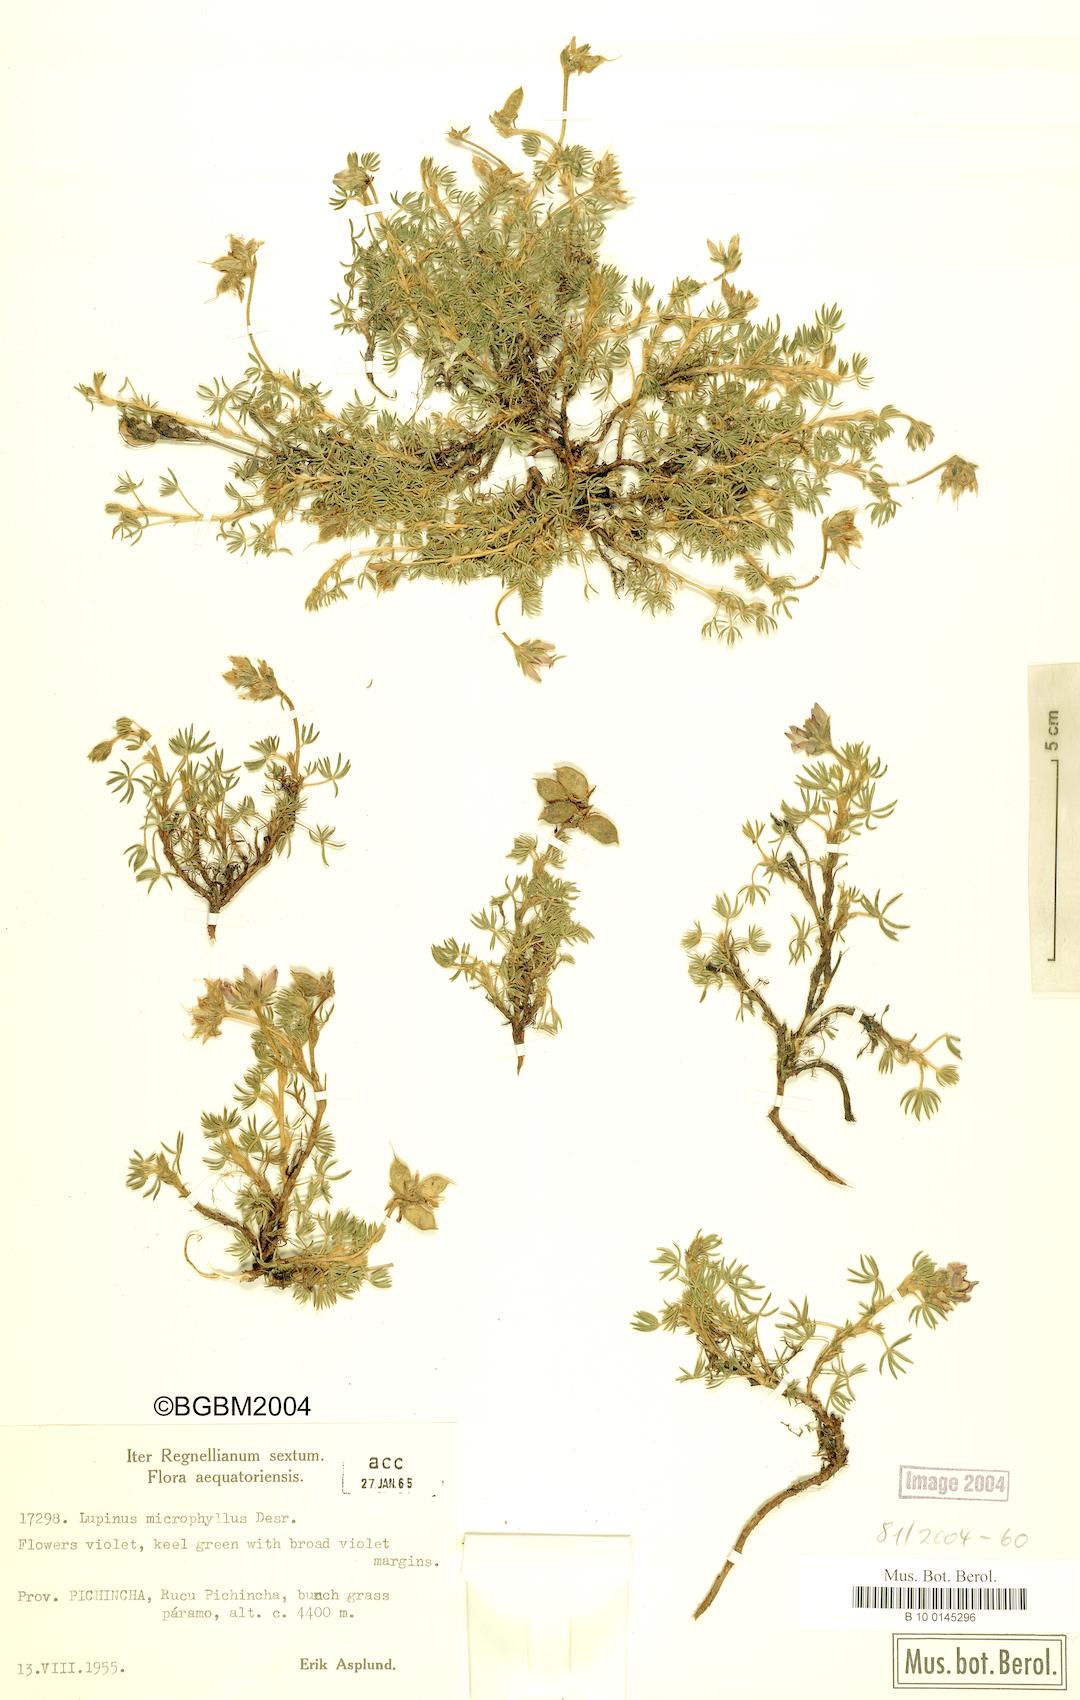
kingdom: Plantae
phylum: Tracheophyta
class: Magnoliopsida
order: Fabales
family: Fabaceae
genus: Lupinus
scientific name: Lupinus microphyllus
